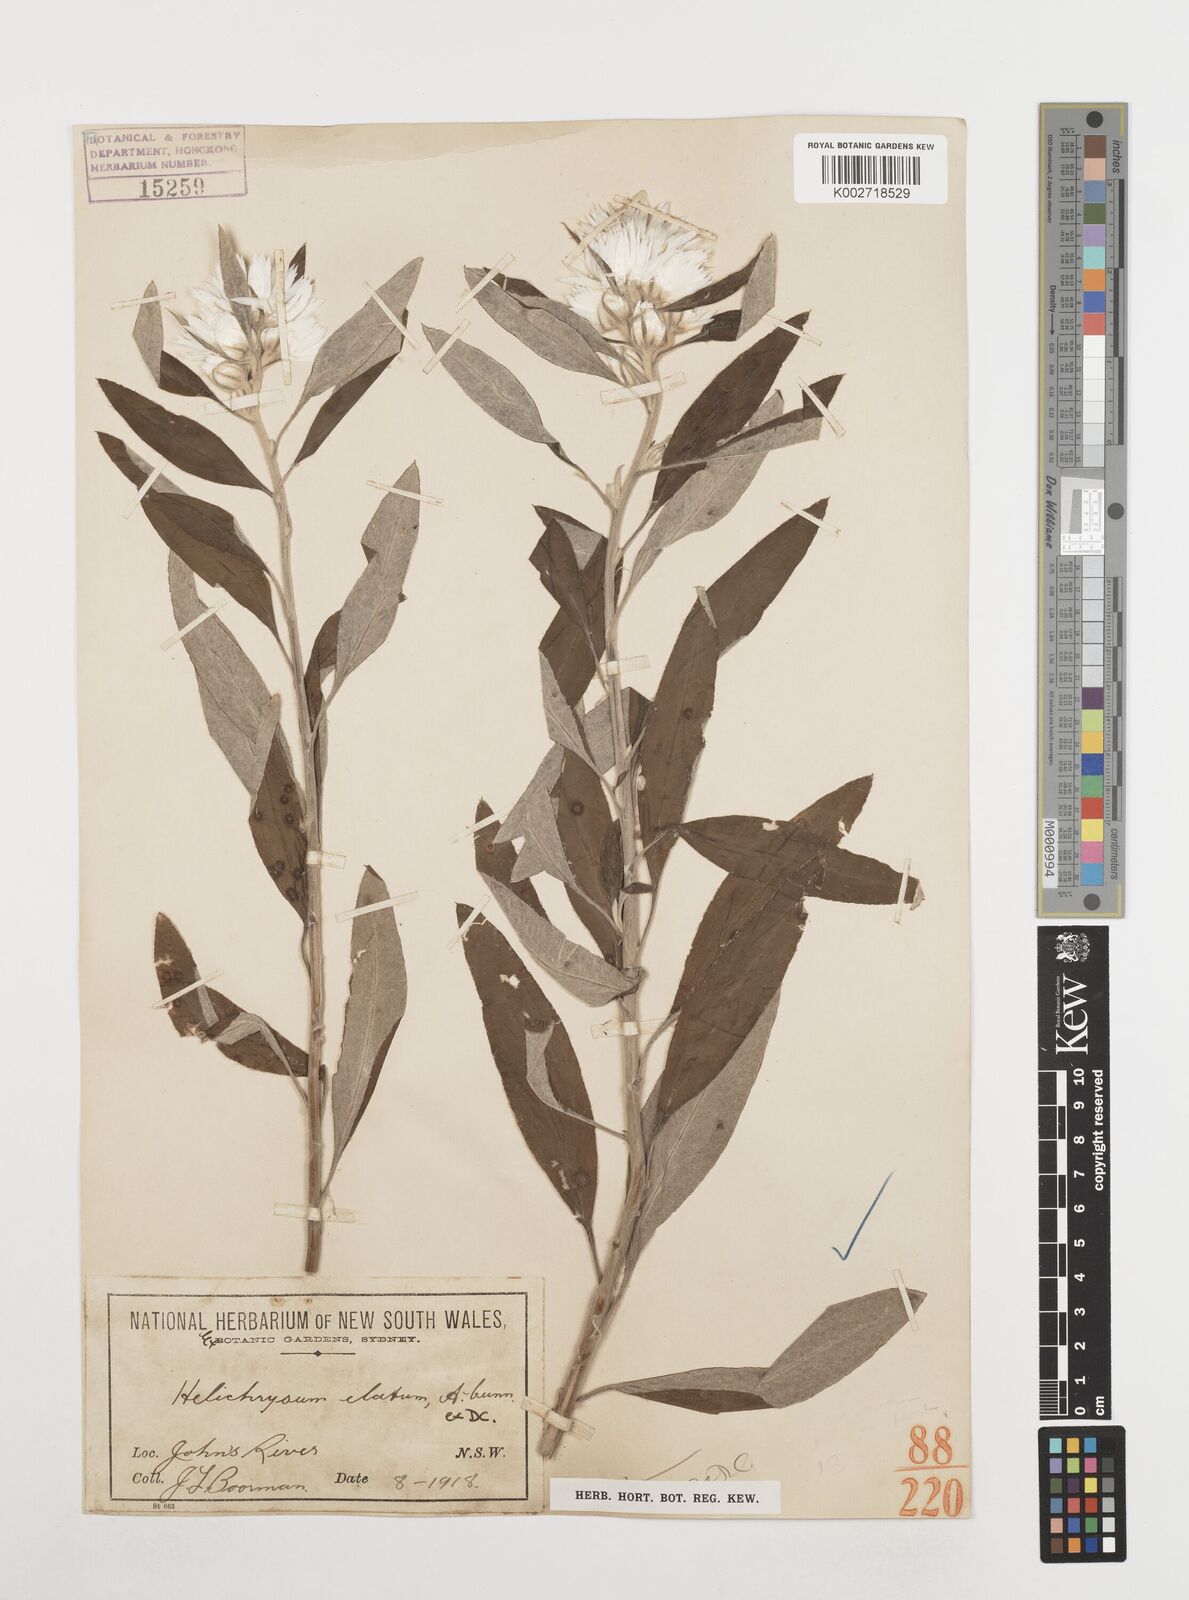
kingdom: Plantae
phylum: Tracheophyta
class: Magnoliopsida
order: Asterales
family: Asteraceae
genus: Leucozoma
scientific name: Leucozoma elatum
